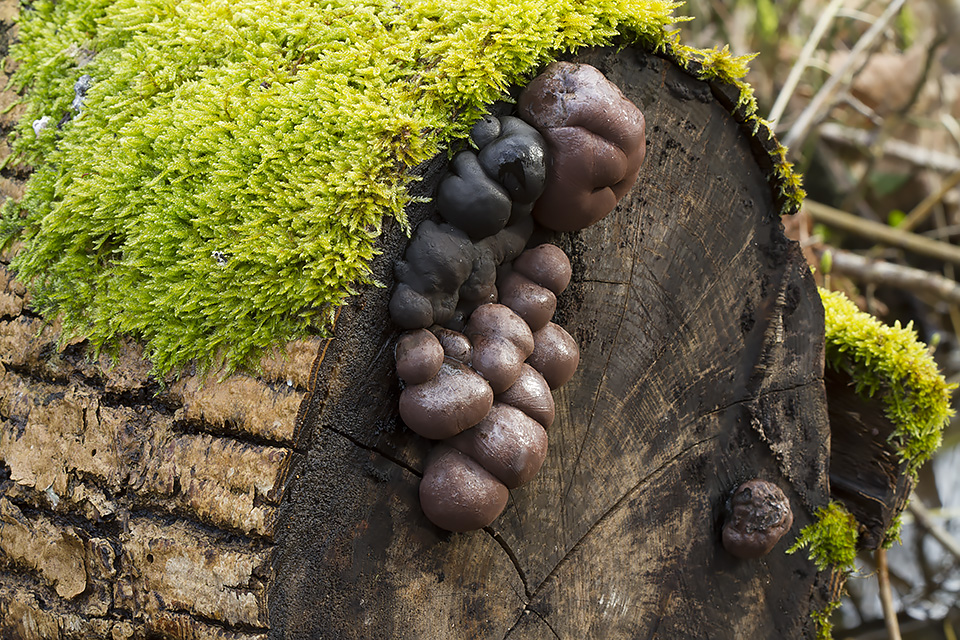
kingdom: Fungi
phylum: Ascomycota
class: Sordariomycetes
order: Xylariales
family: Hypoxylaceae
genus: Daldinia
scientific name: Daldinia concentrica
